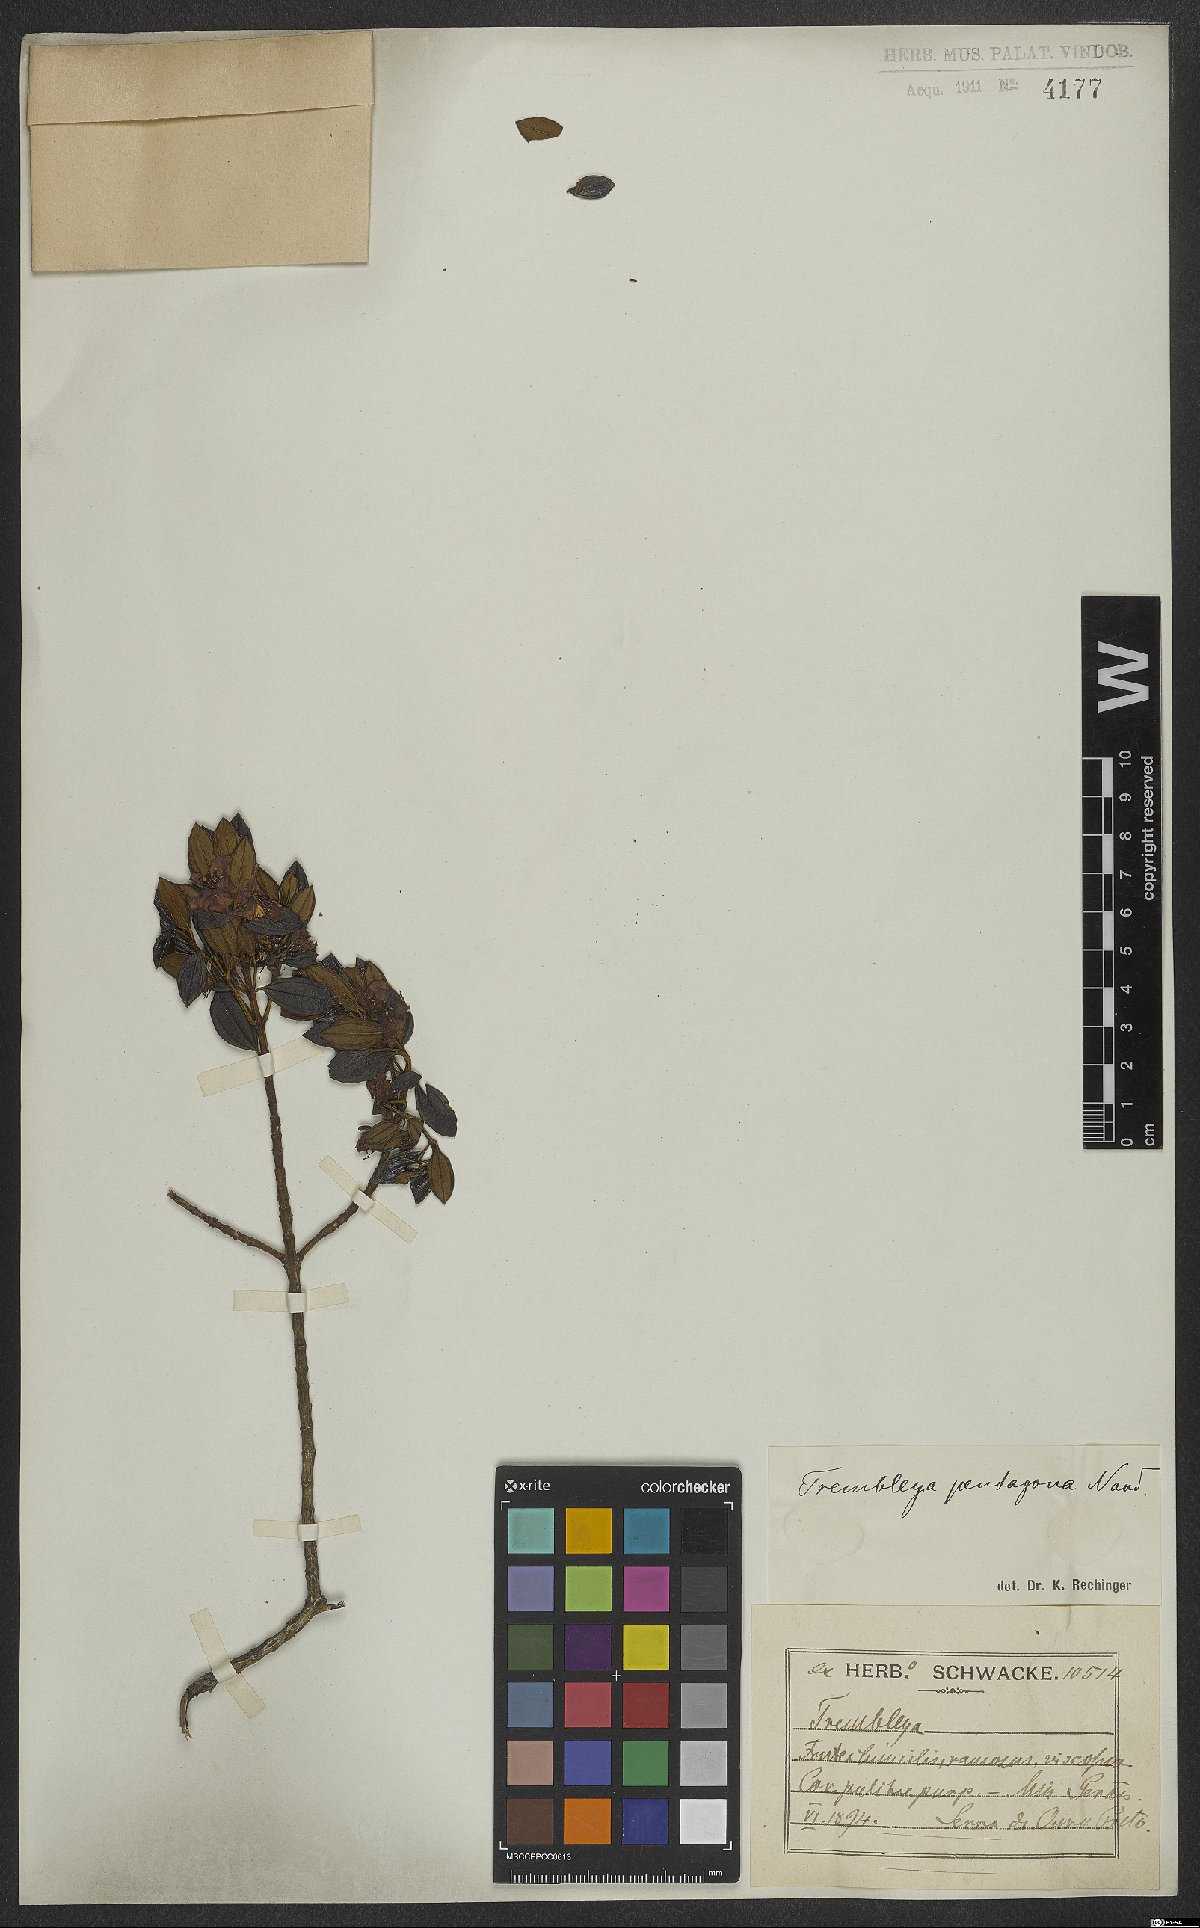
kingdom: Plantae
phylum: Tracheophyta
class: Magnoliopsida
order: Myrtales
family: Melastomataceae
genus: Microlicia
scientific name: Microlicia pentagona
